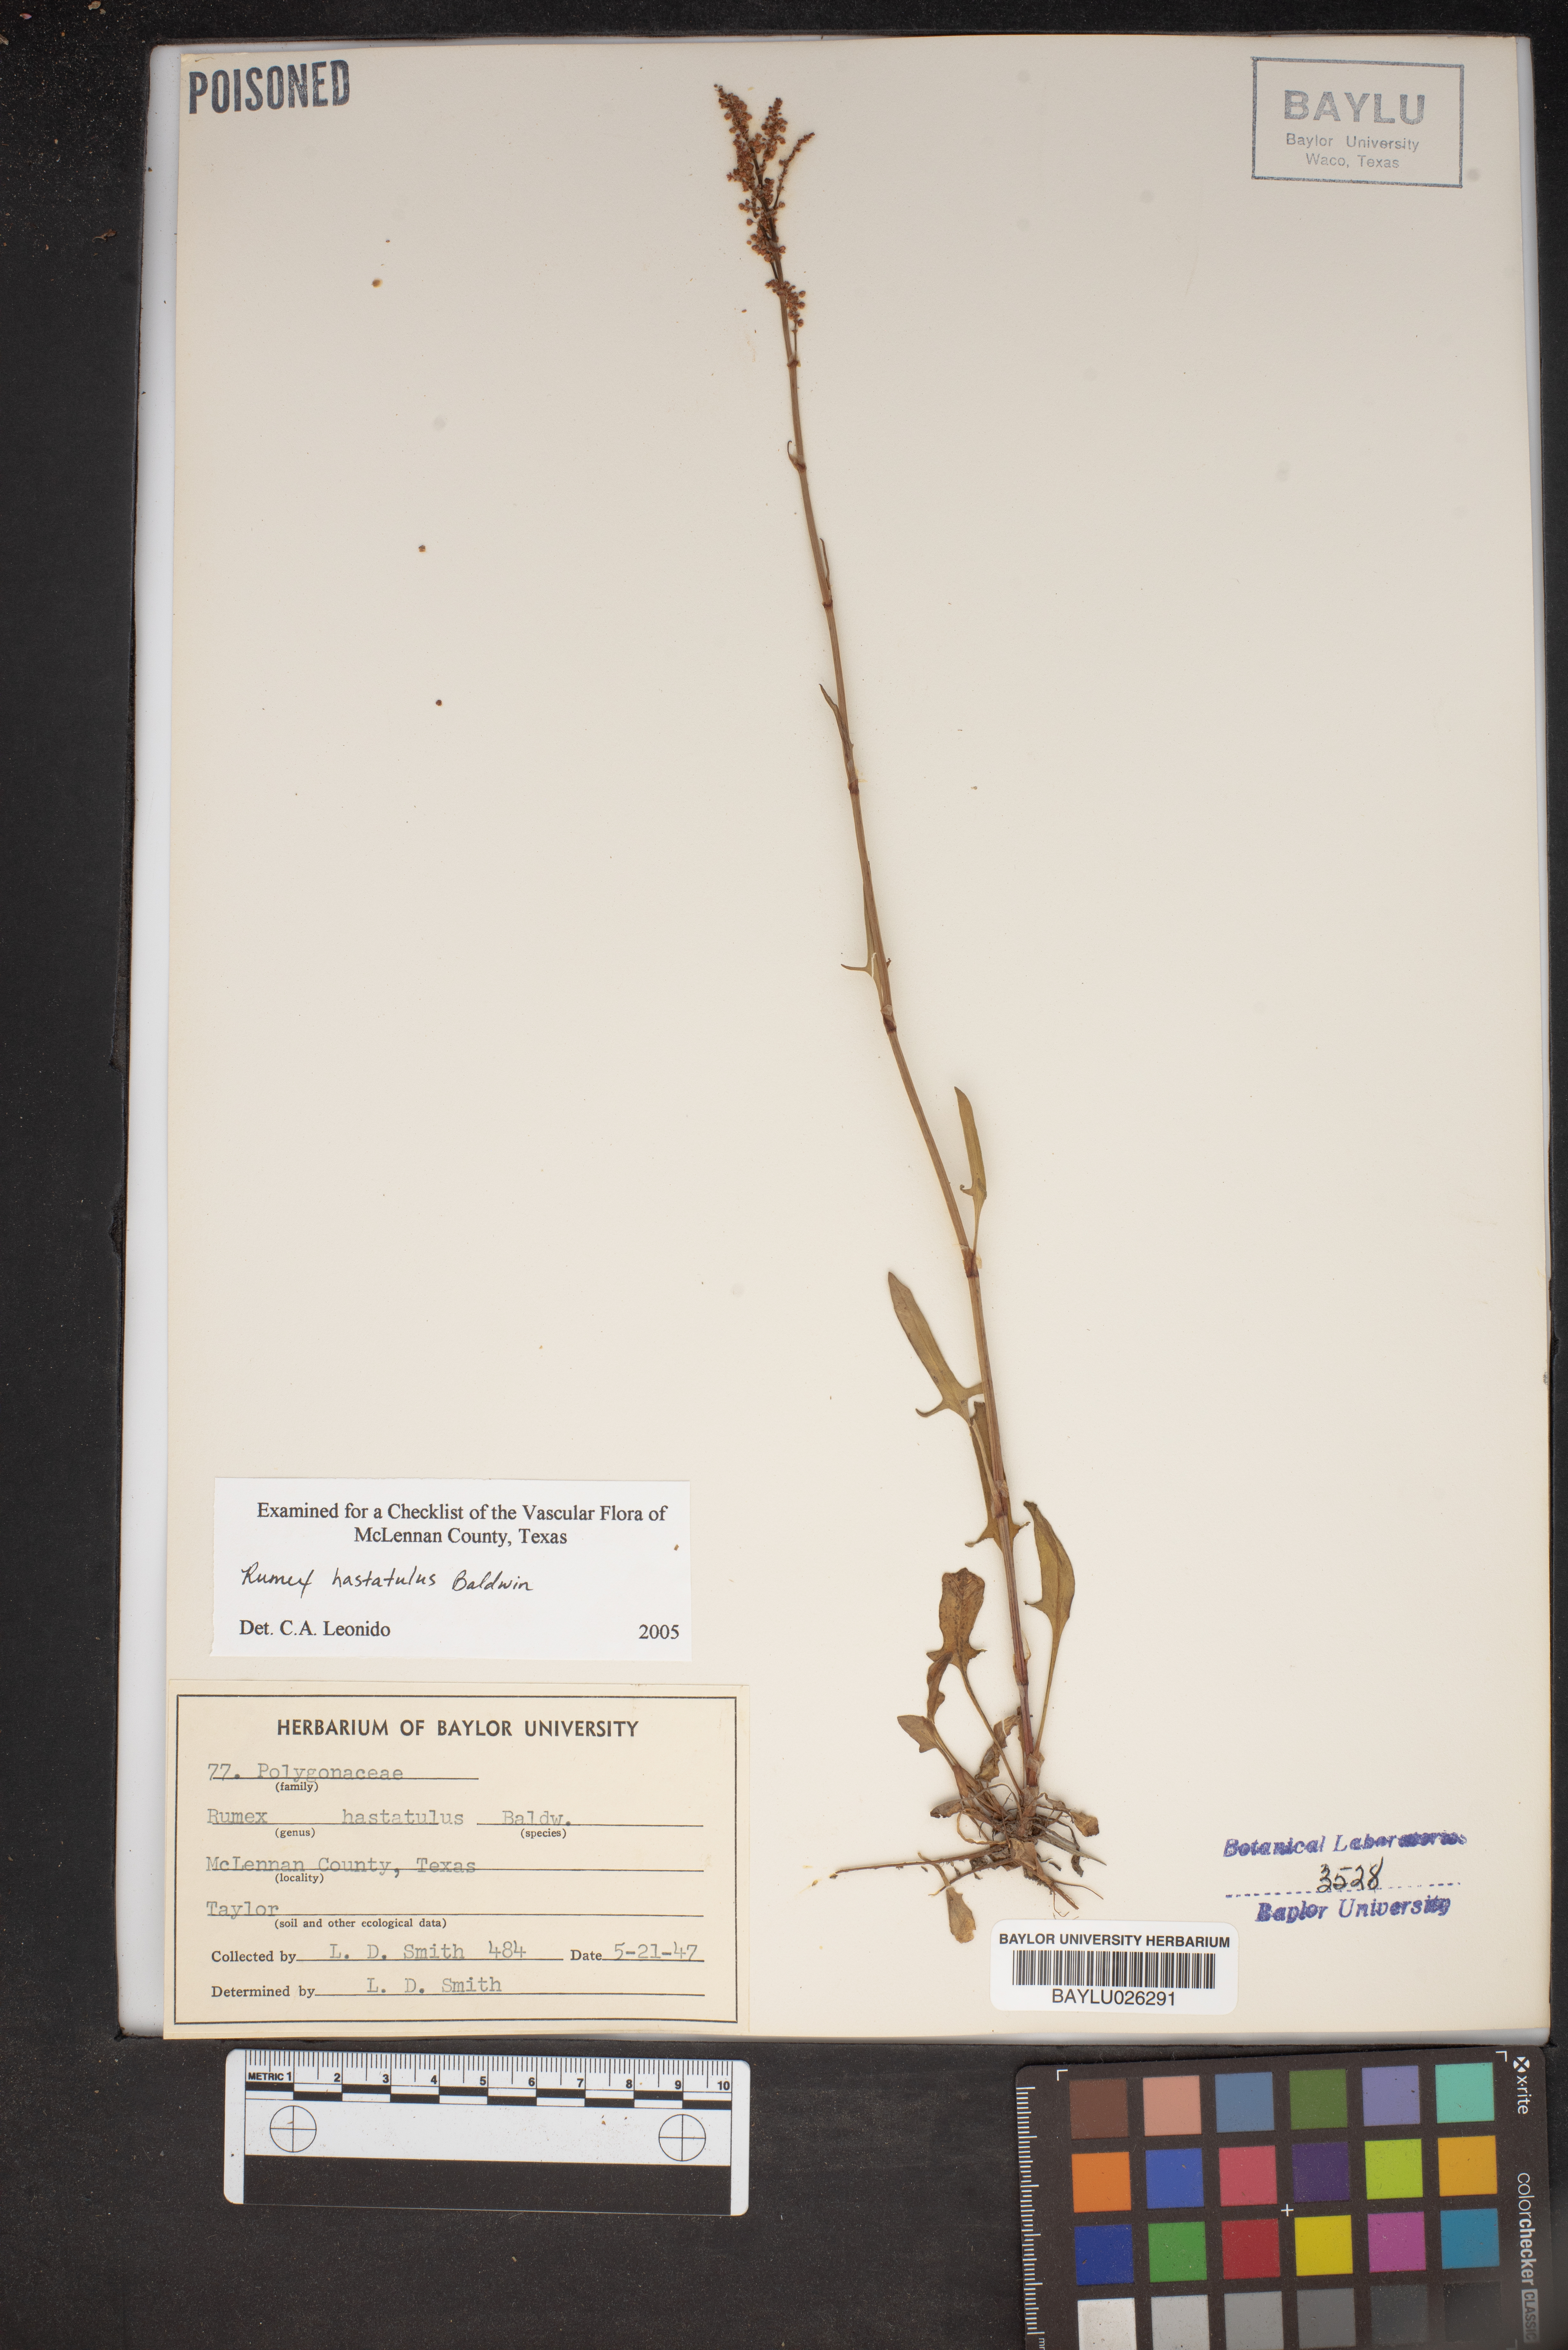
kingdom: Plantae
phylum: Tracheophyta
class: Magnoliopsida
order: Caryophyllales
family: Polygonaceae
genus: Rumex
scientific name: Rumex hastatulus
